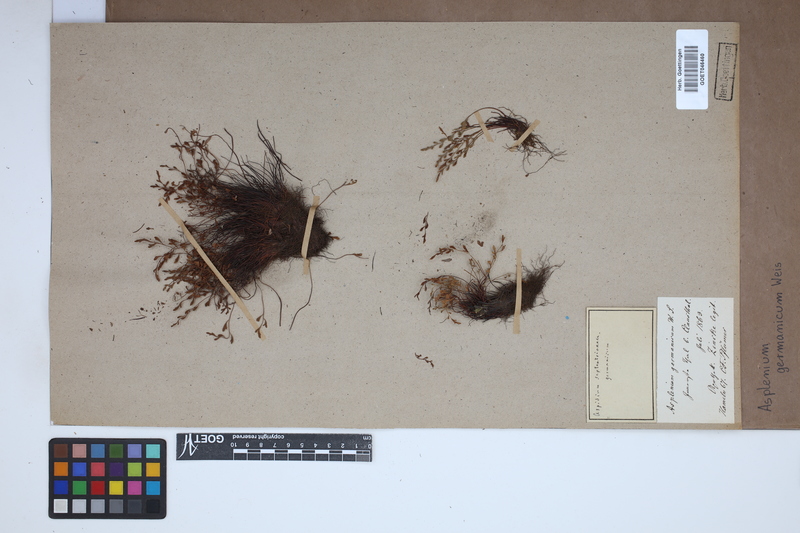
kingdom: Plantae
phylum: Tracheophyta
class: Polypodiopsida
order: Polypodiales
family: Aspleniaceae
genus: Asplenium
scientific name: Asplenium
